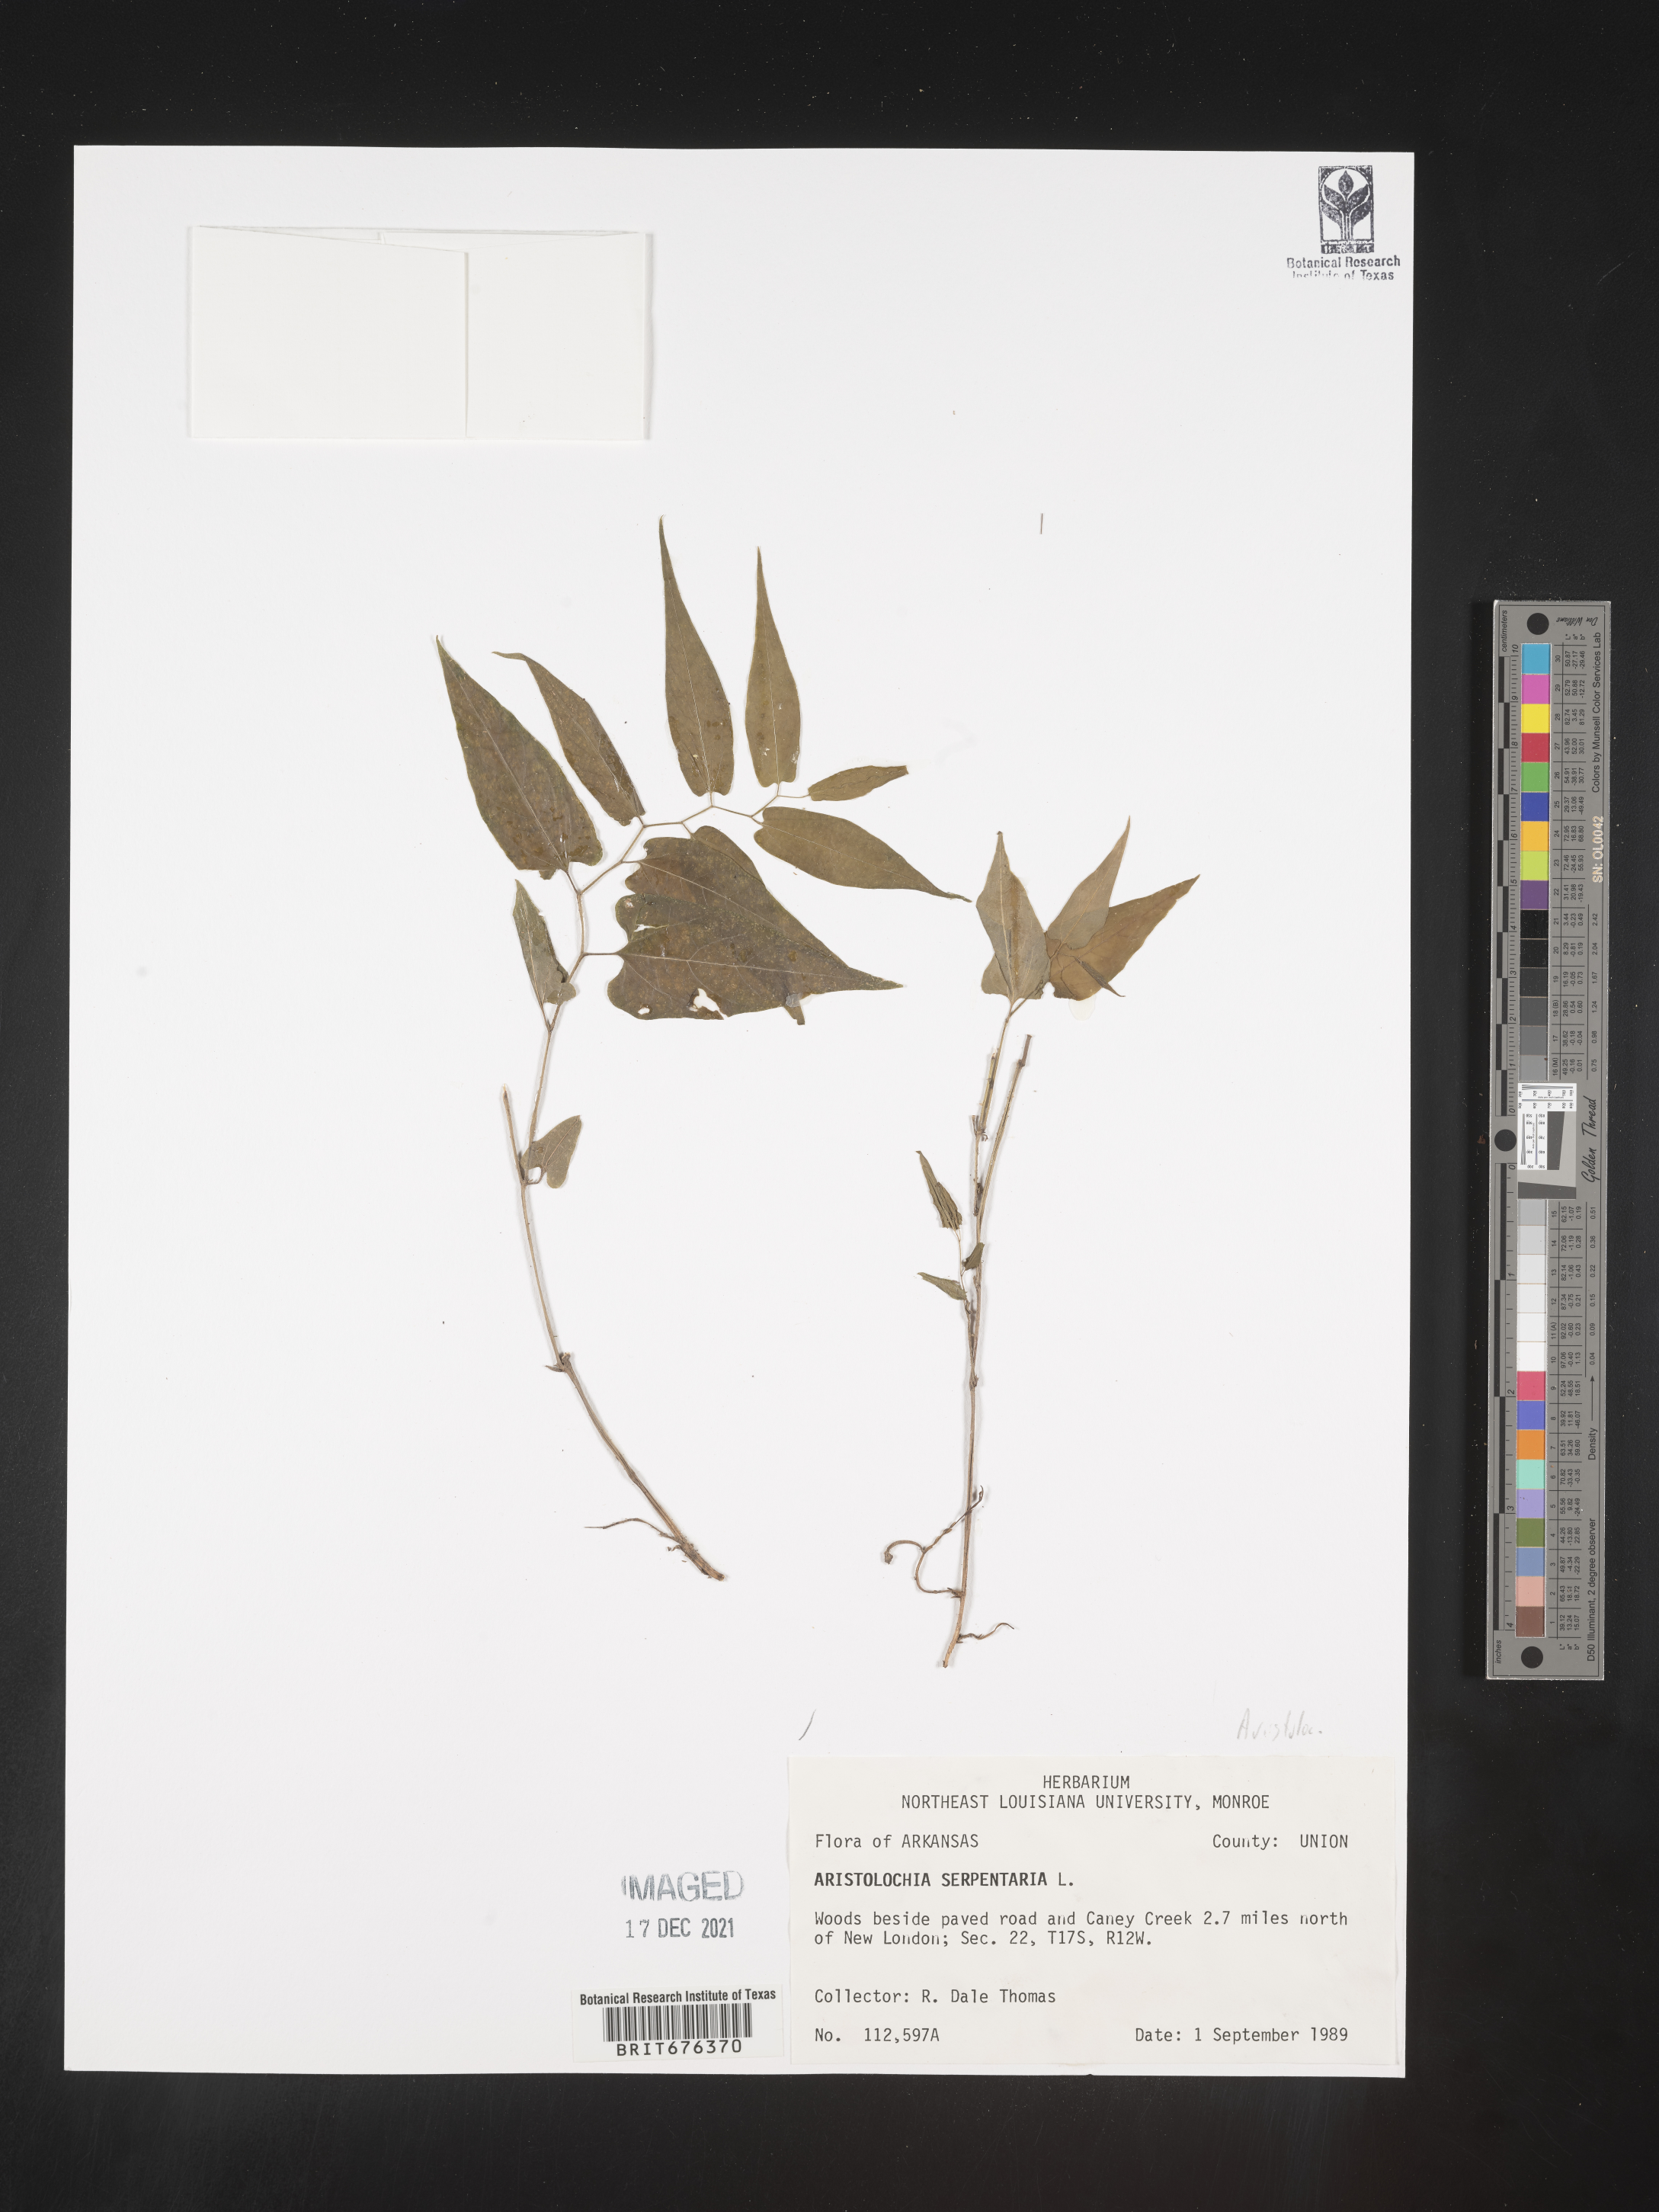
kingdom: Plantae
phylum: Tracheophyta
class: Magnoliopsida
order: Piperales
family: Aristolochiaceae
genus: Aristolochia
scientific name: Aristolochia
